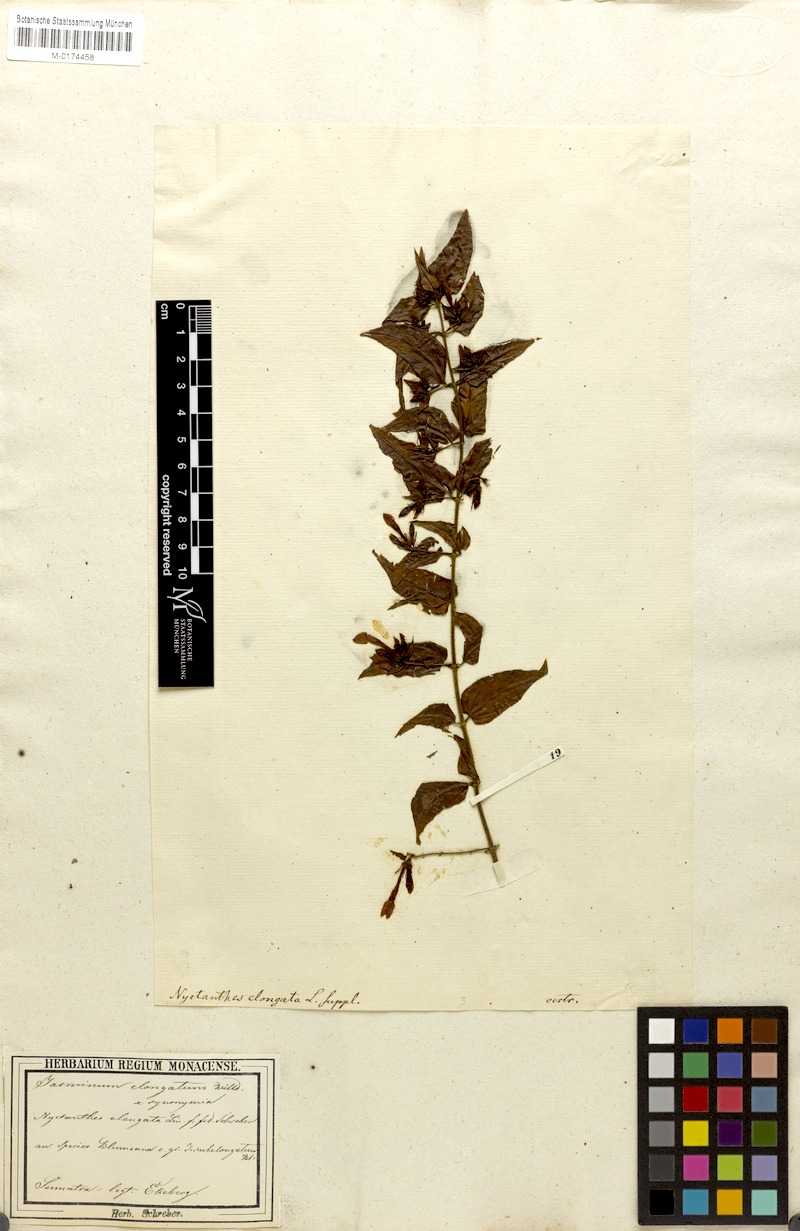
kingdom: Plantae
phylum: Tracheophyta
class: Magnoliopsida
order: Lamiales
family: Oleaceae
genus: Jasminum
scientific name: Jasminum elongatum
